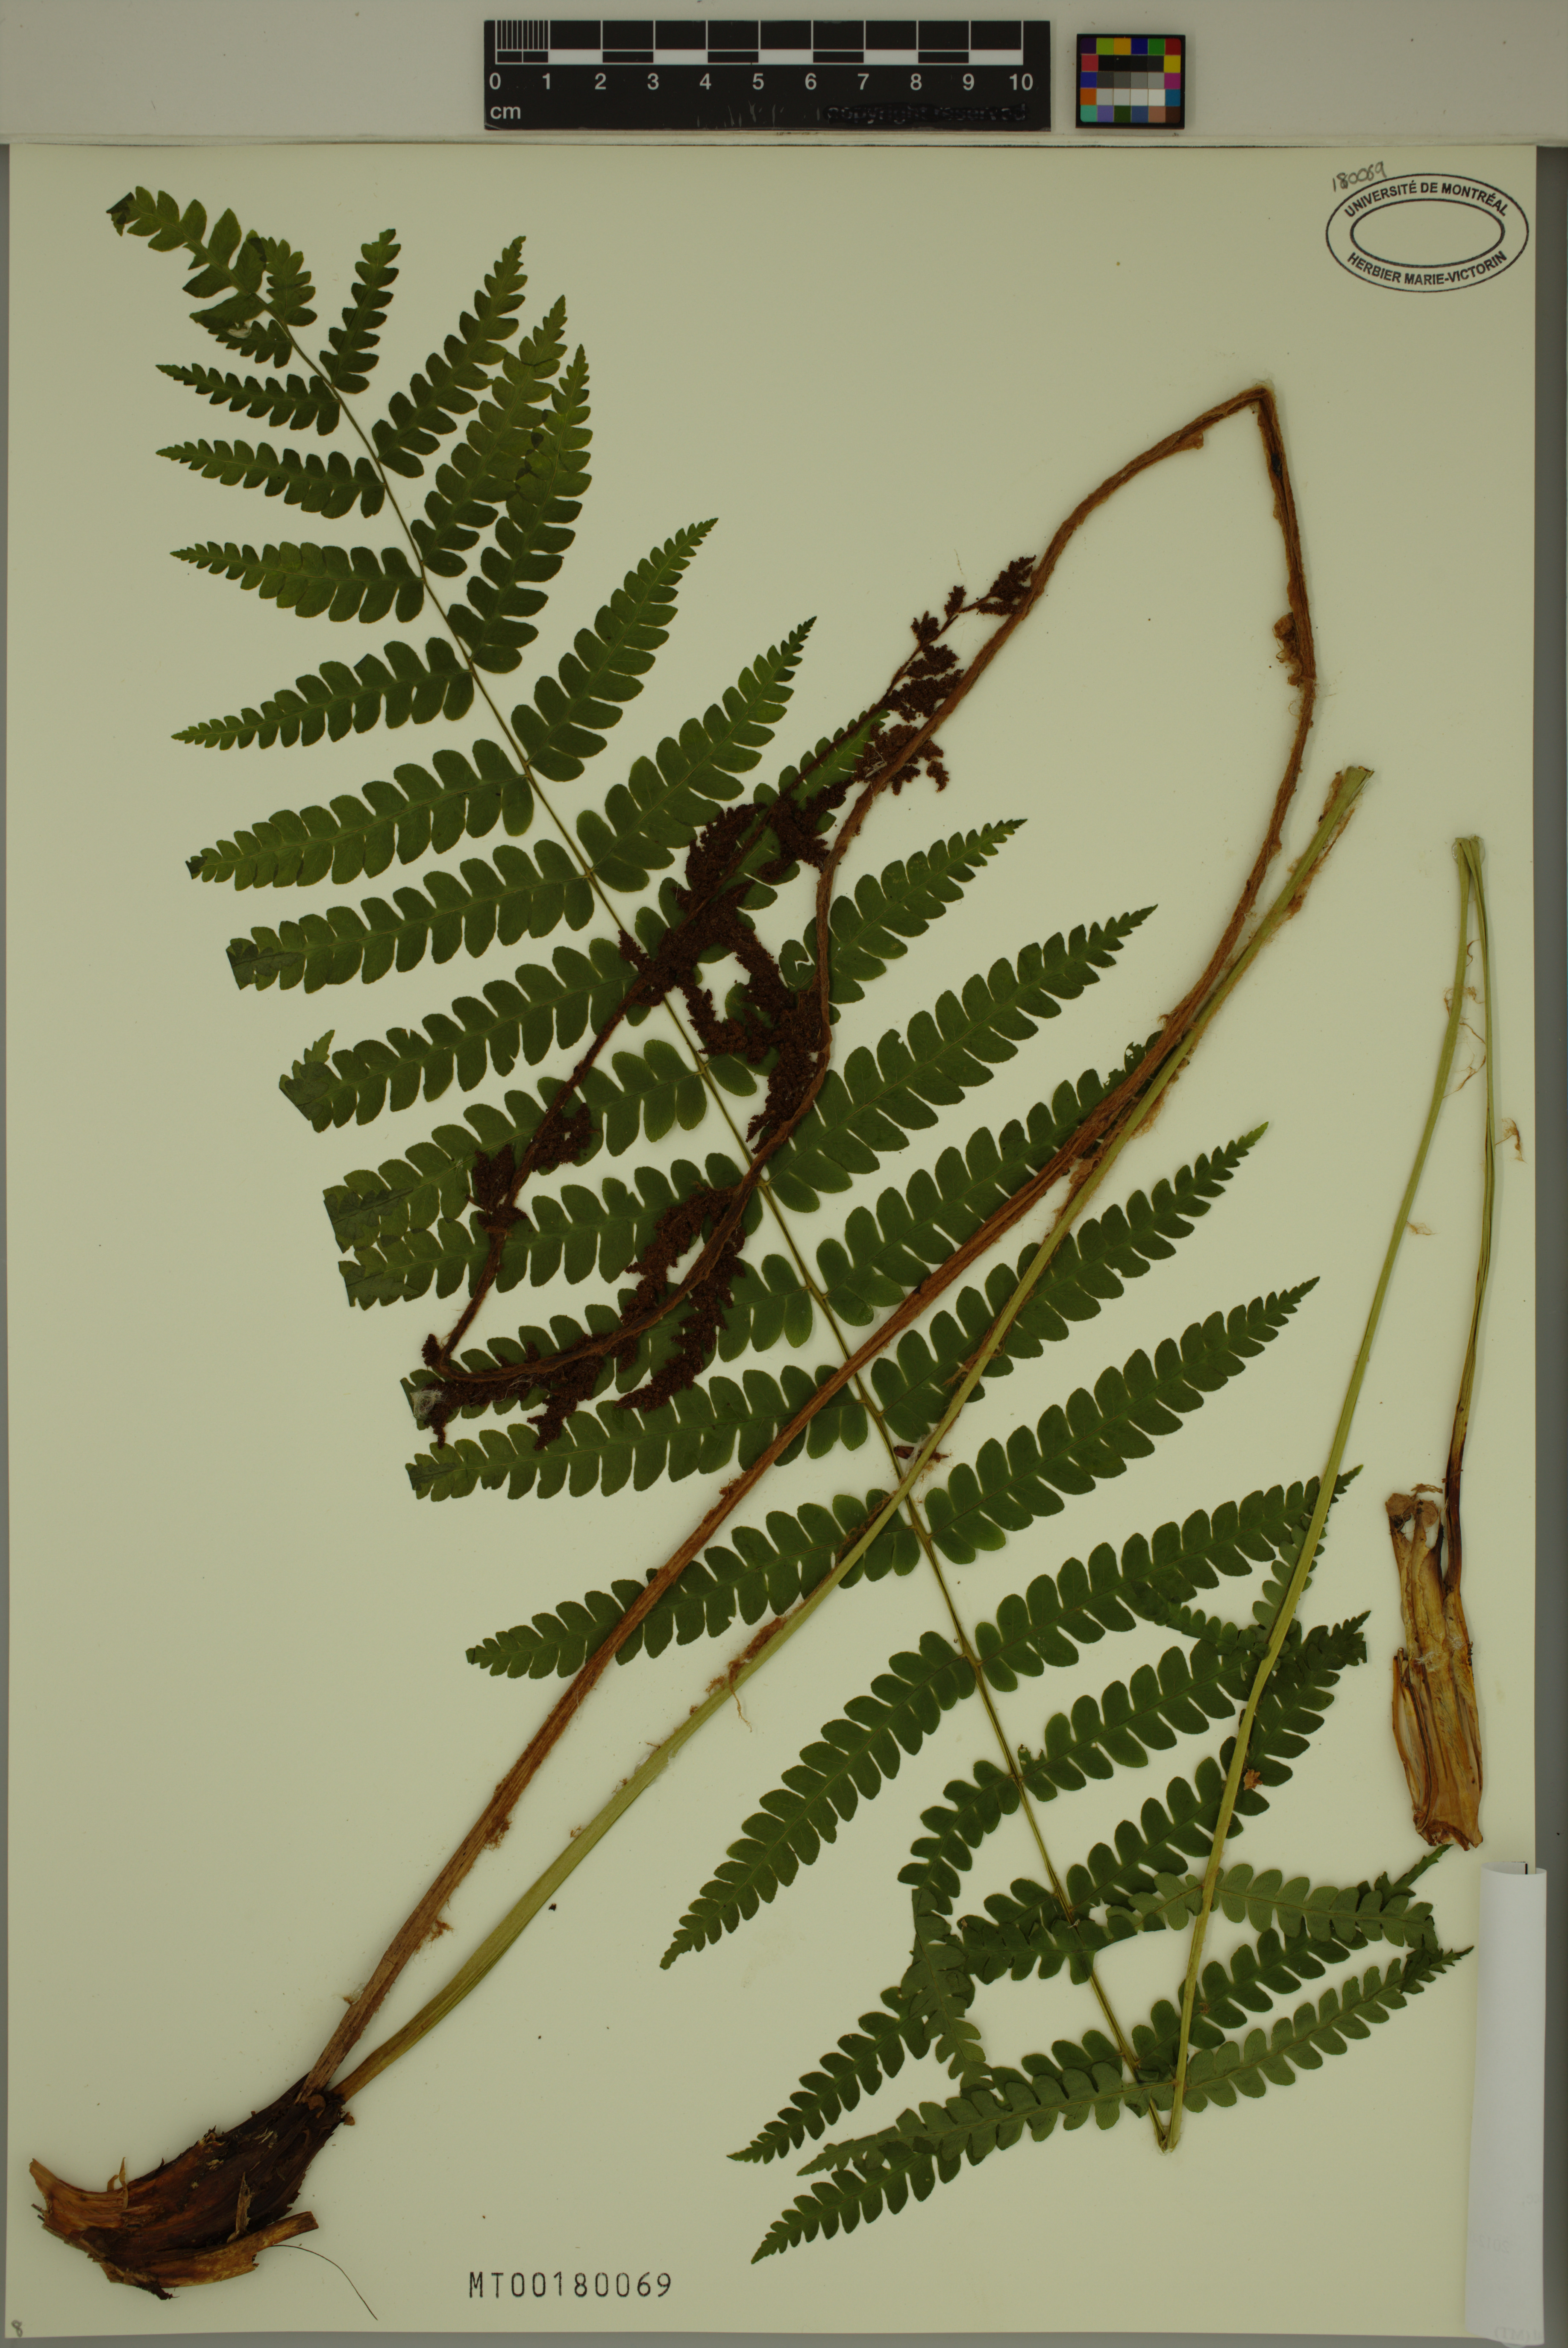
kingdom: Plantae
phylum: Tracheophyta
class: Polypodiopsida
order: Osmundales
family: Osmundaceae
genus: Osmundastrum
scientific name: Osmundastrum cinnamomeum
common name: Cinnamon fern
